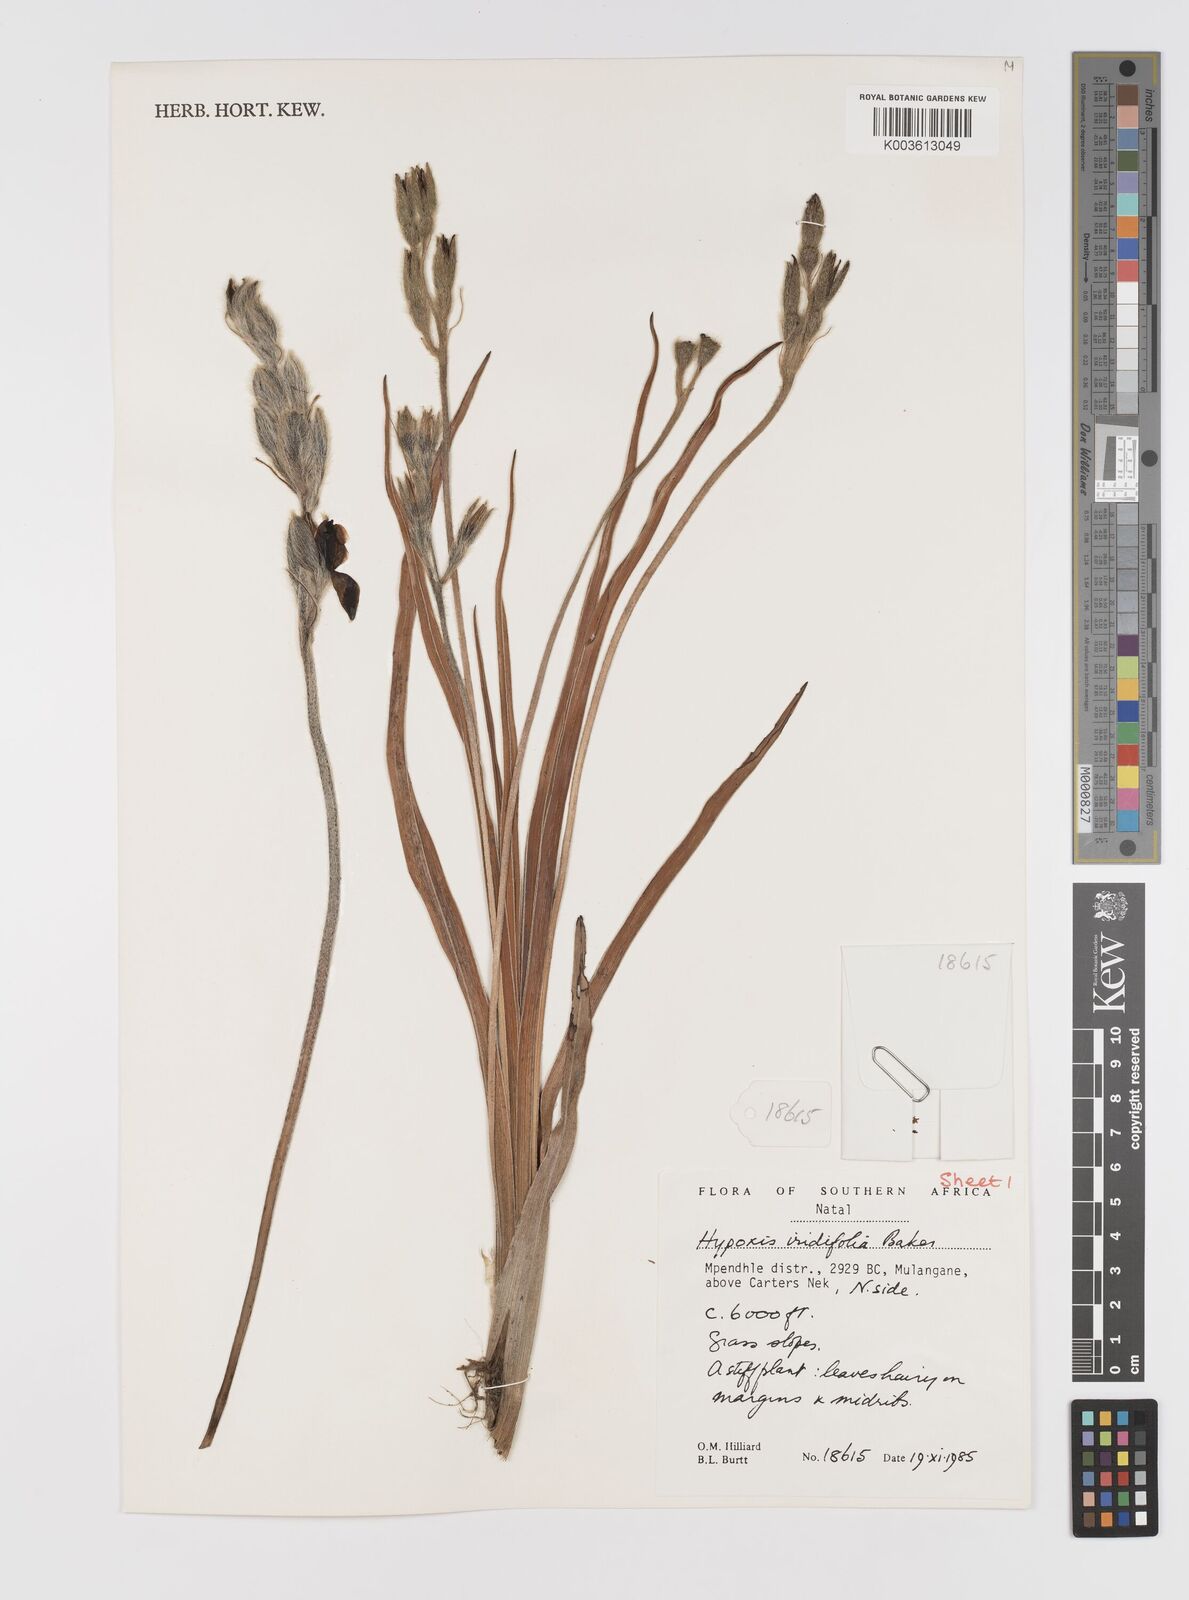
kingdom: Plantae
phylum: Tracheophyta
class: Liliopsida
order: Asparagales
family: Hypoxidaceae
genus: Hypoxis
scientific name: Hypoxis obtusa
